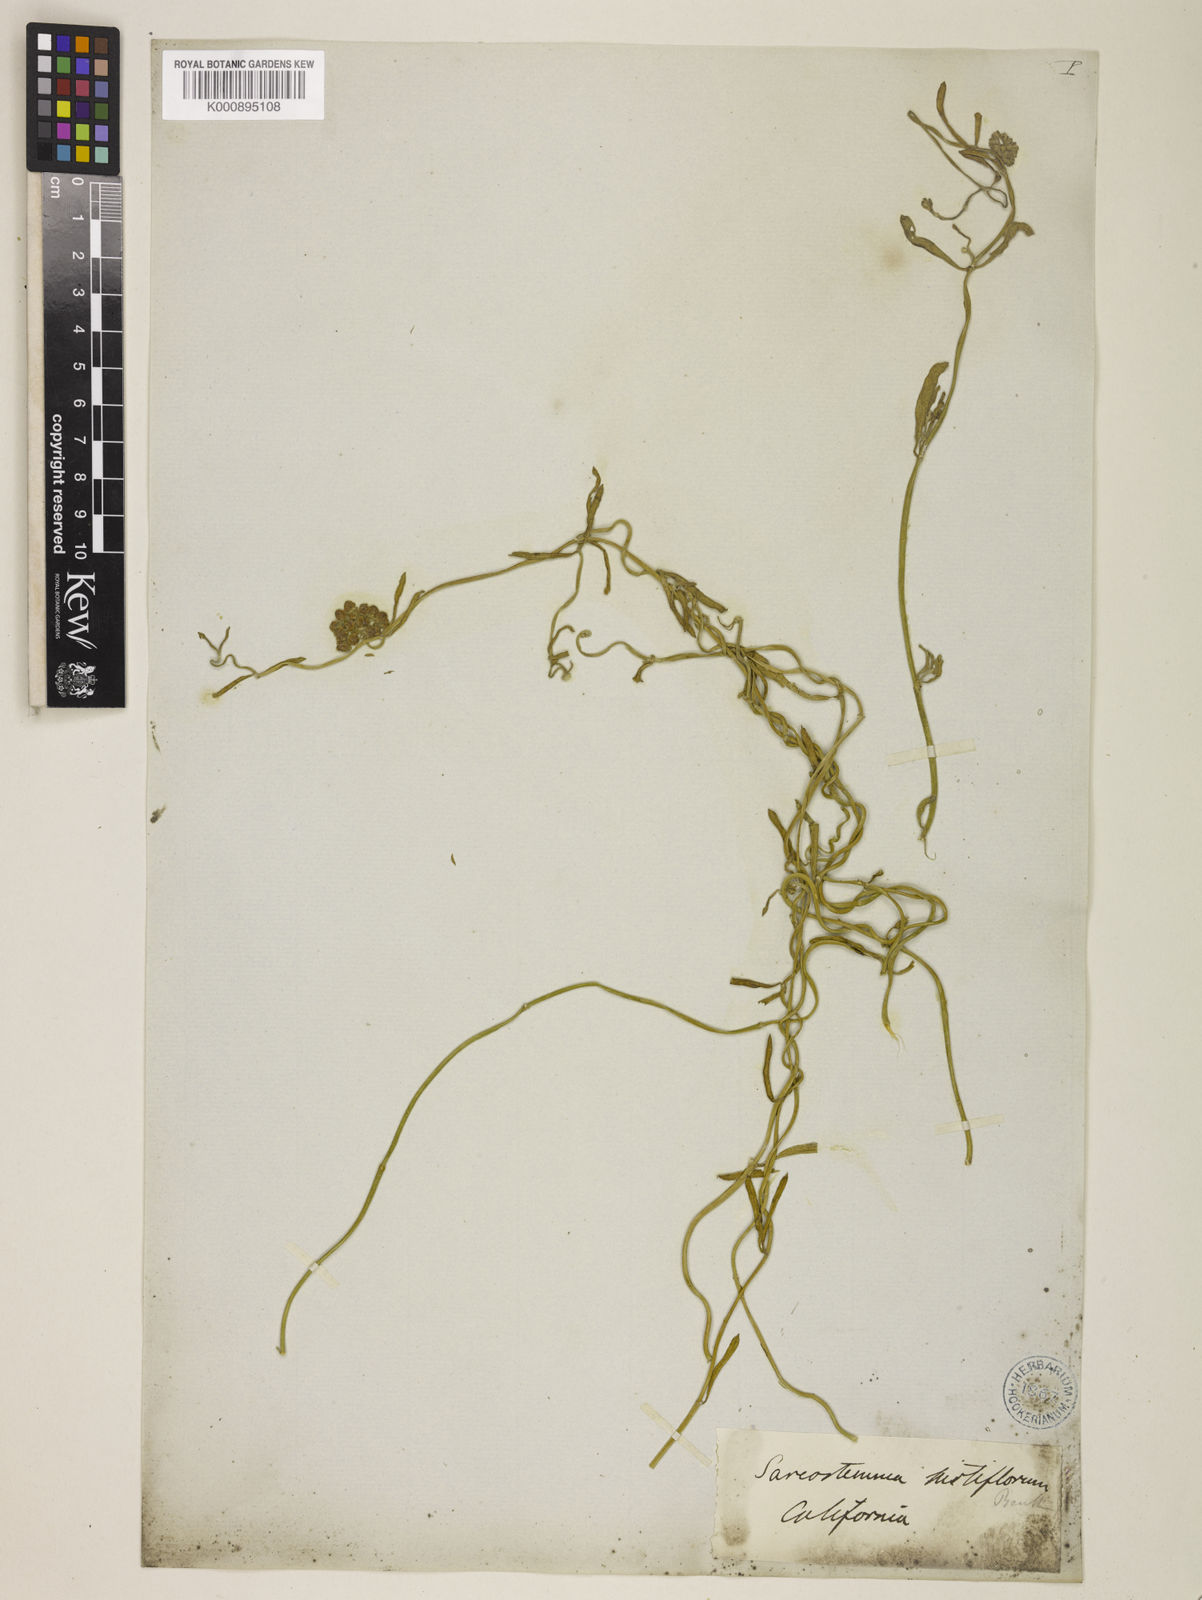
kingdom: Plantae
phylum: Tracheophyta
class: Magnoliopsida
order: Gentianales
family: Apocynaceae
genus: Funastrum
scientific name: Funastrum arenarium
